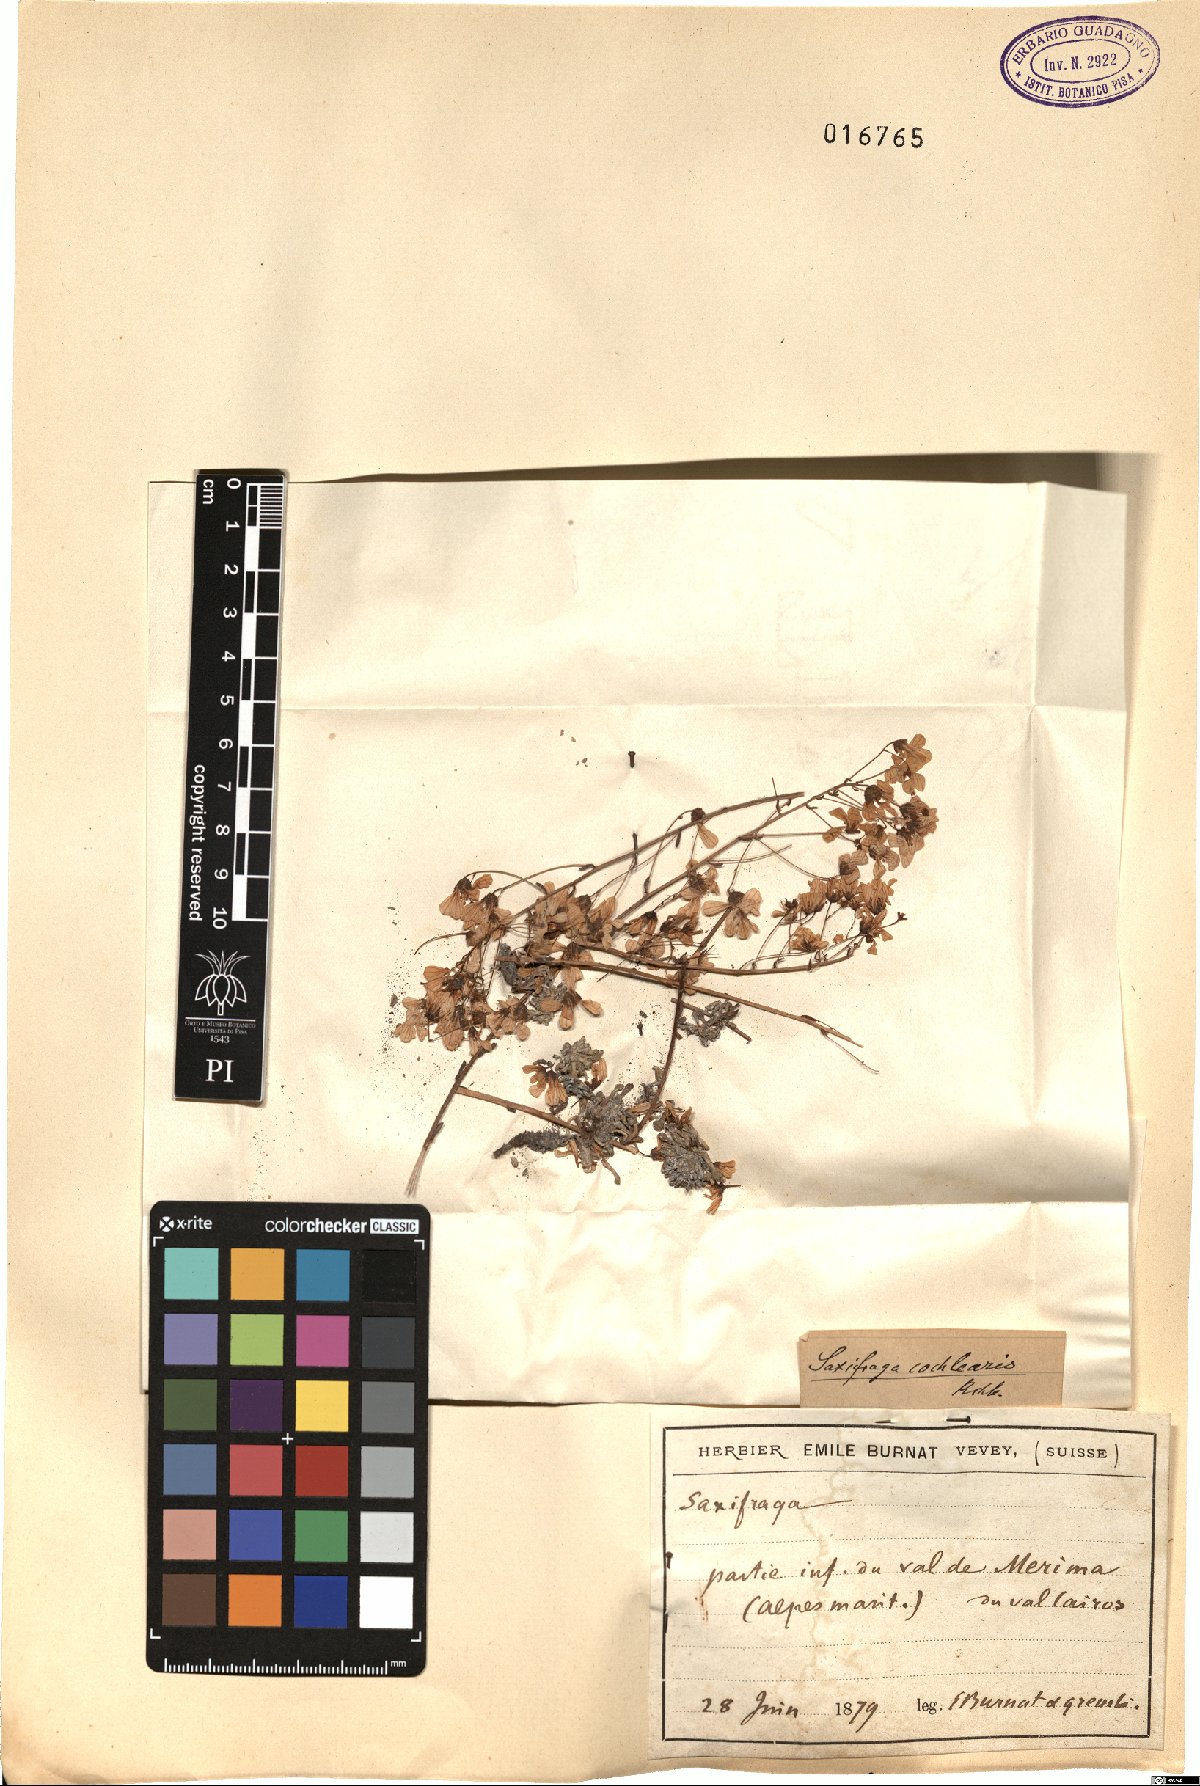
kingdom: Plantae
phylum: Tracheophyta
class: Magnoliopsida
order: Saxifragales
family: Saxifragaceae
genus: Saxifraga
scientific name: Saxifraga cochlearis
